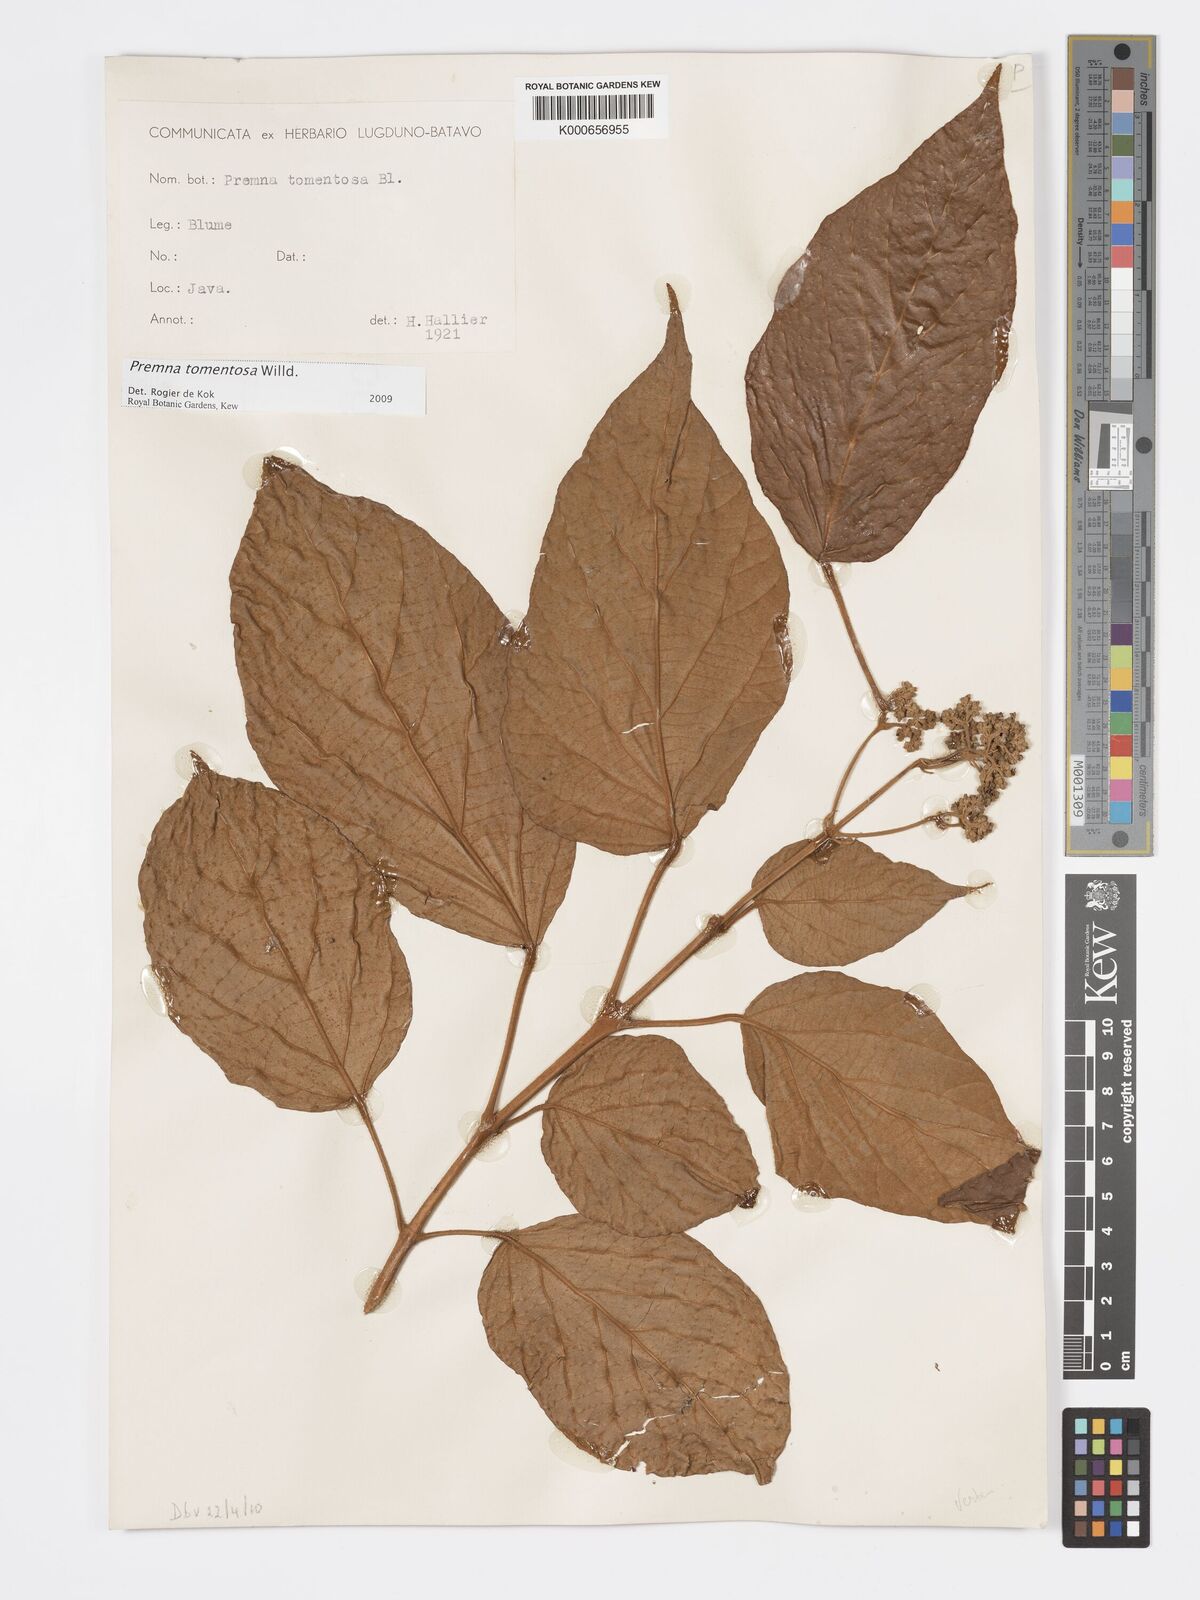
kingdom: Plantae
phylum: Tracheophyta
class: Magnoliopsida
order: Lamiales
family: Lamiaceae
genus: Premna
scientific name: Premna tomentosa
